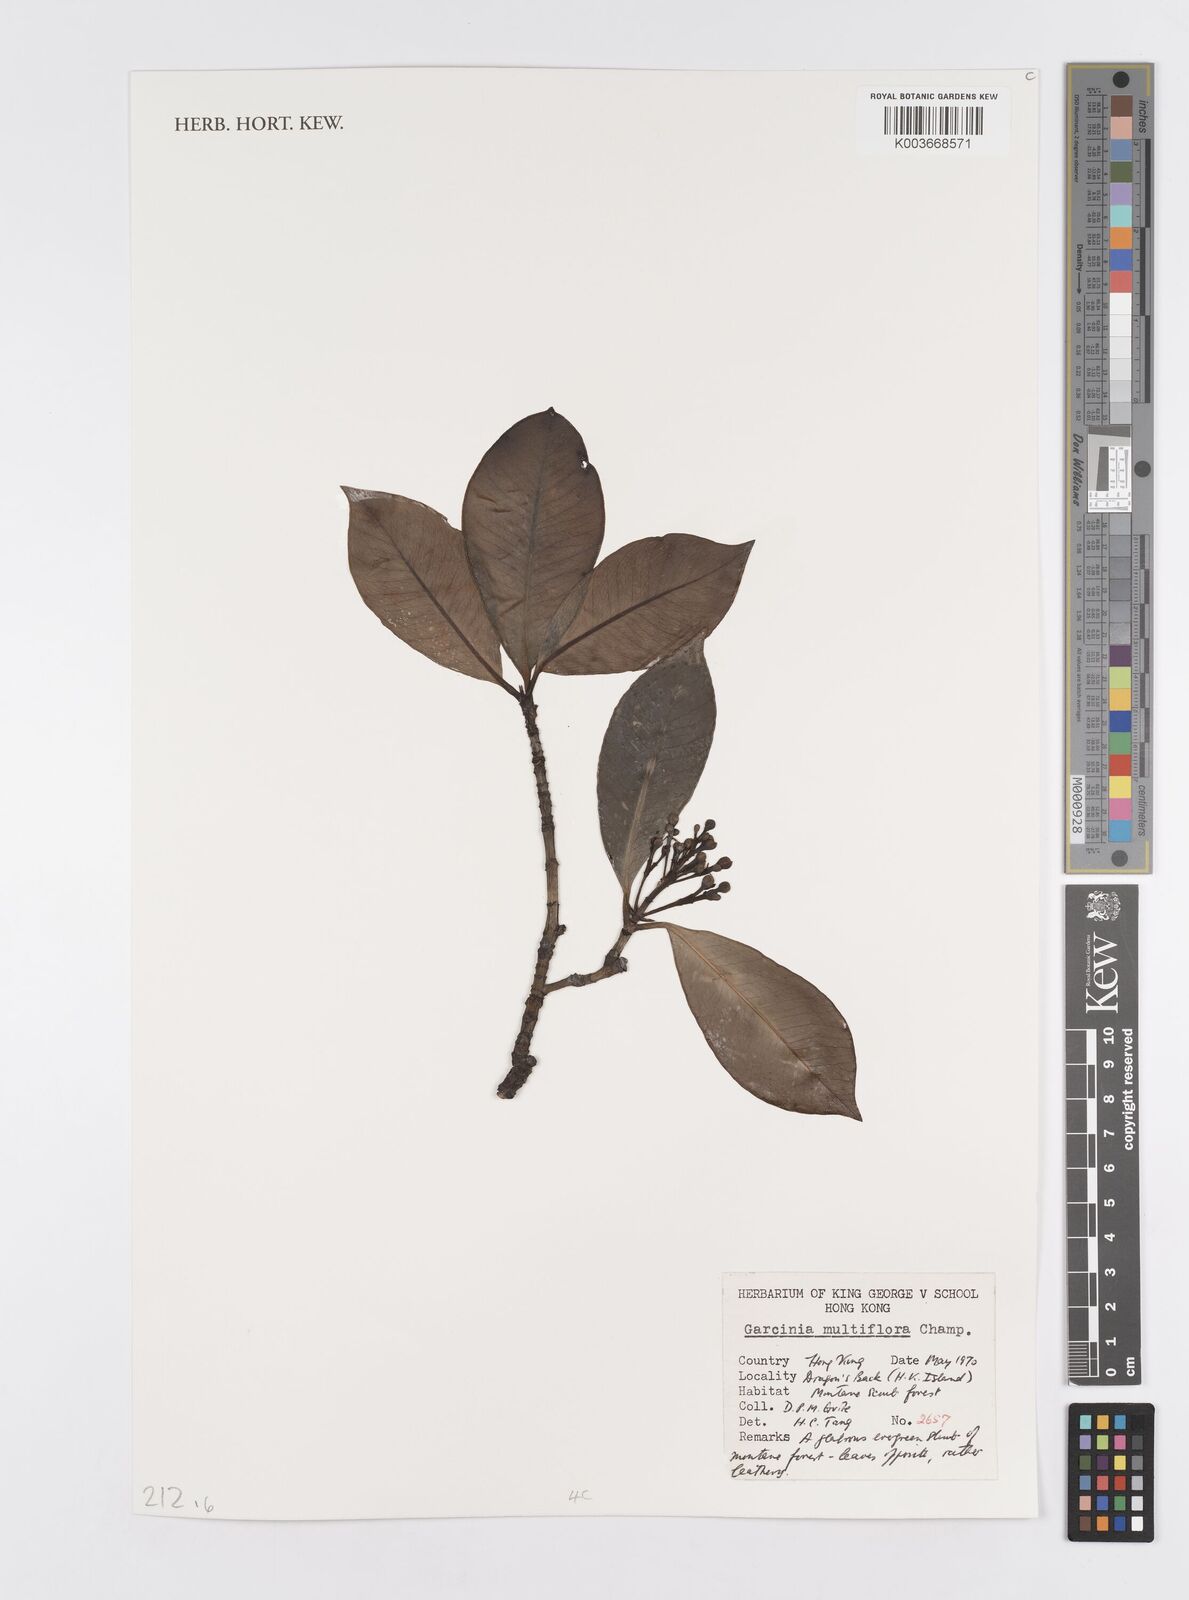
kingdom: Plantae
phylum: Tracheophyta
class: Magnoliopsida
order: Malpighiales
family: Clusiaceae
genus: Garcinia
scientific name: Garcinia multiflora
